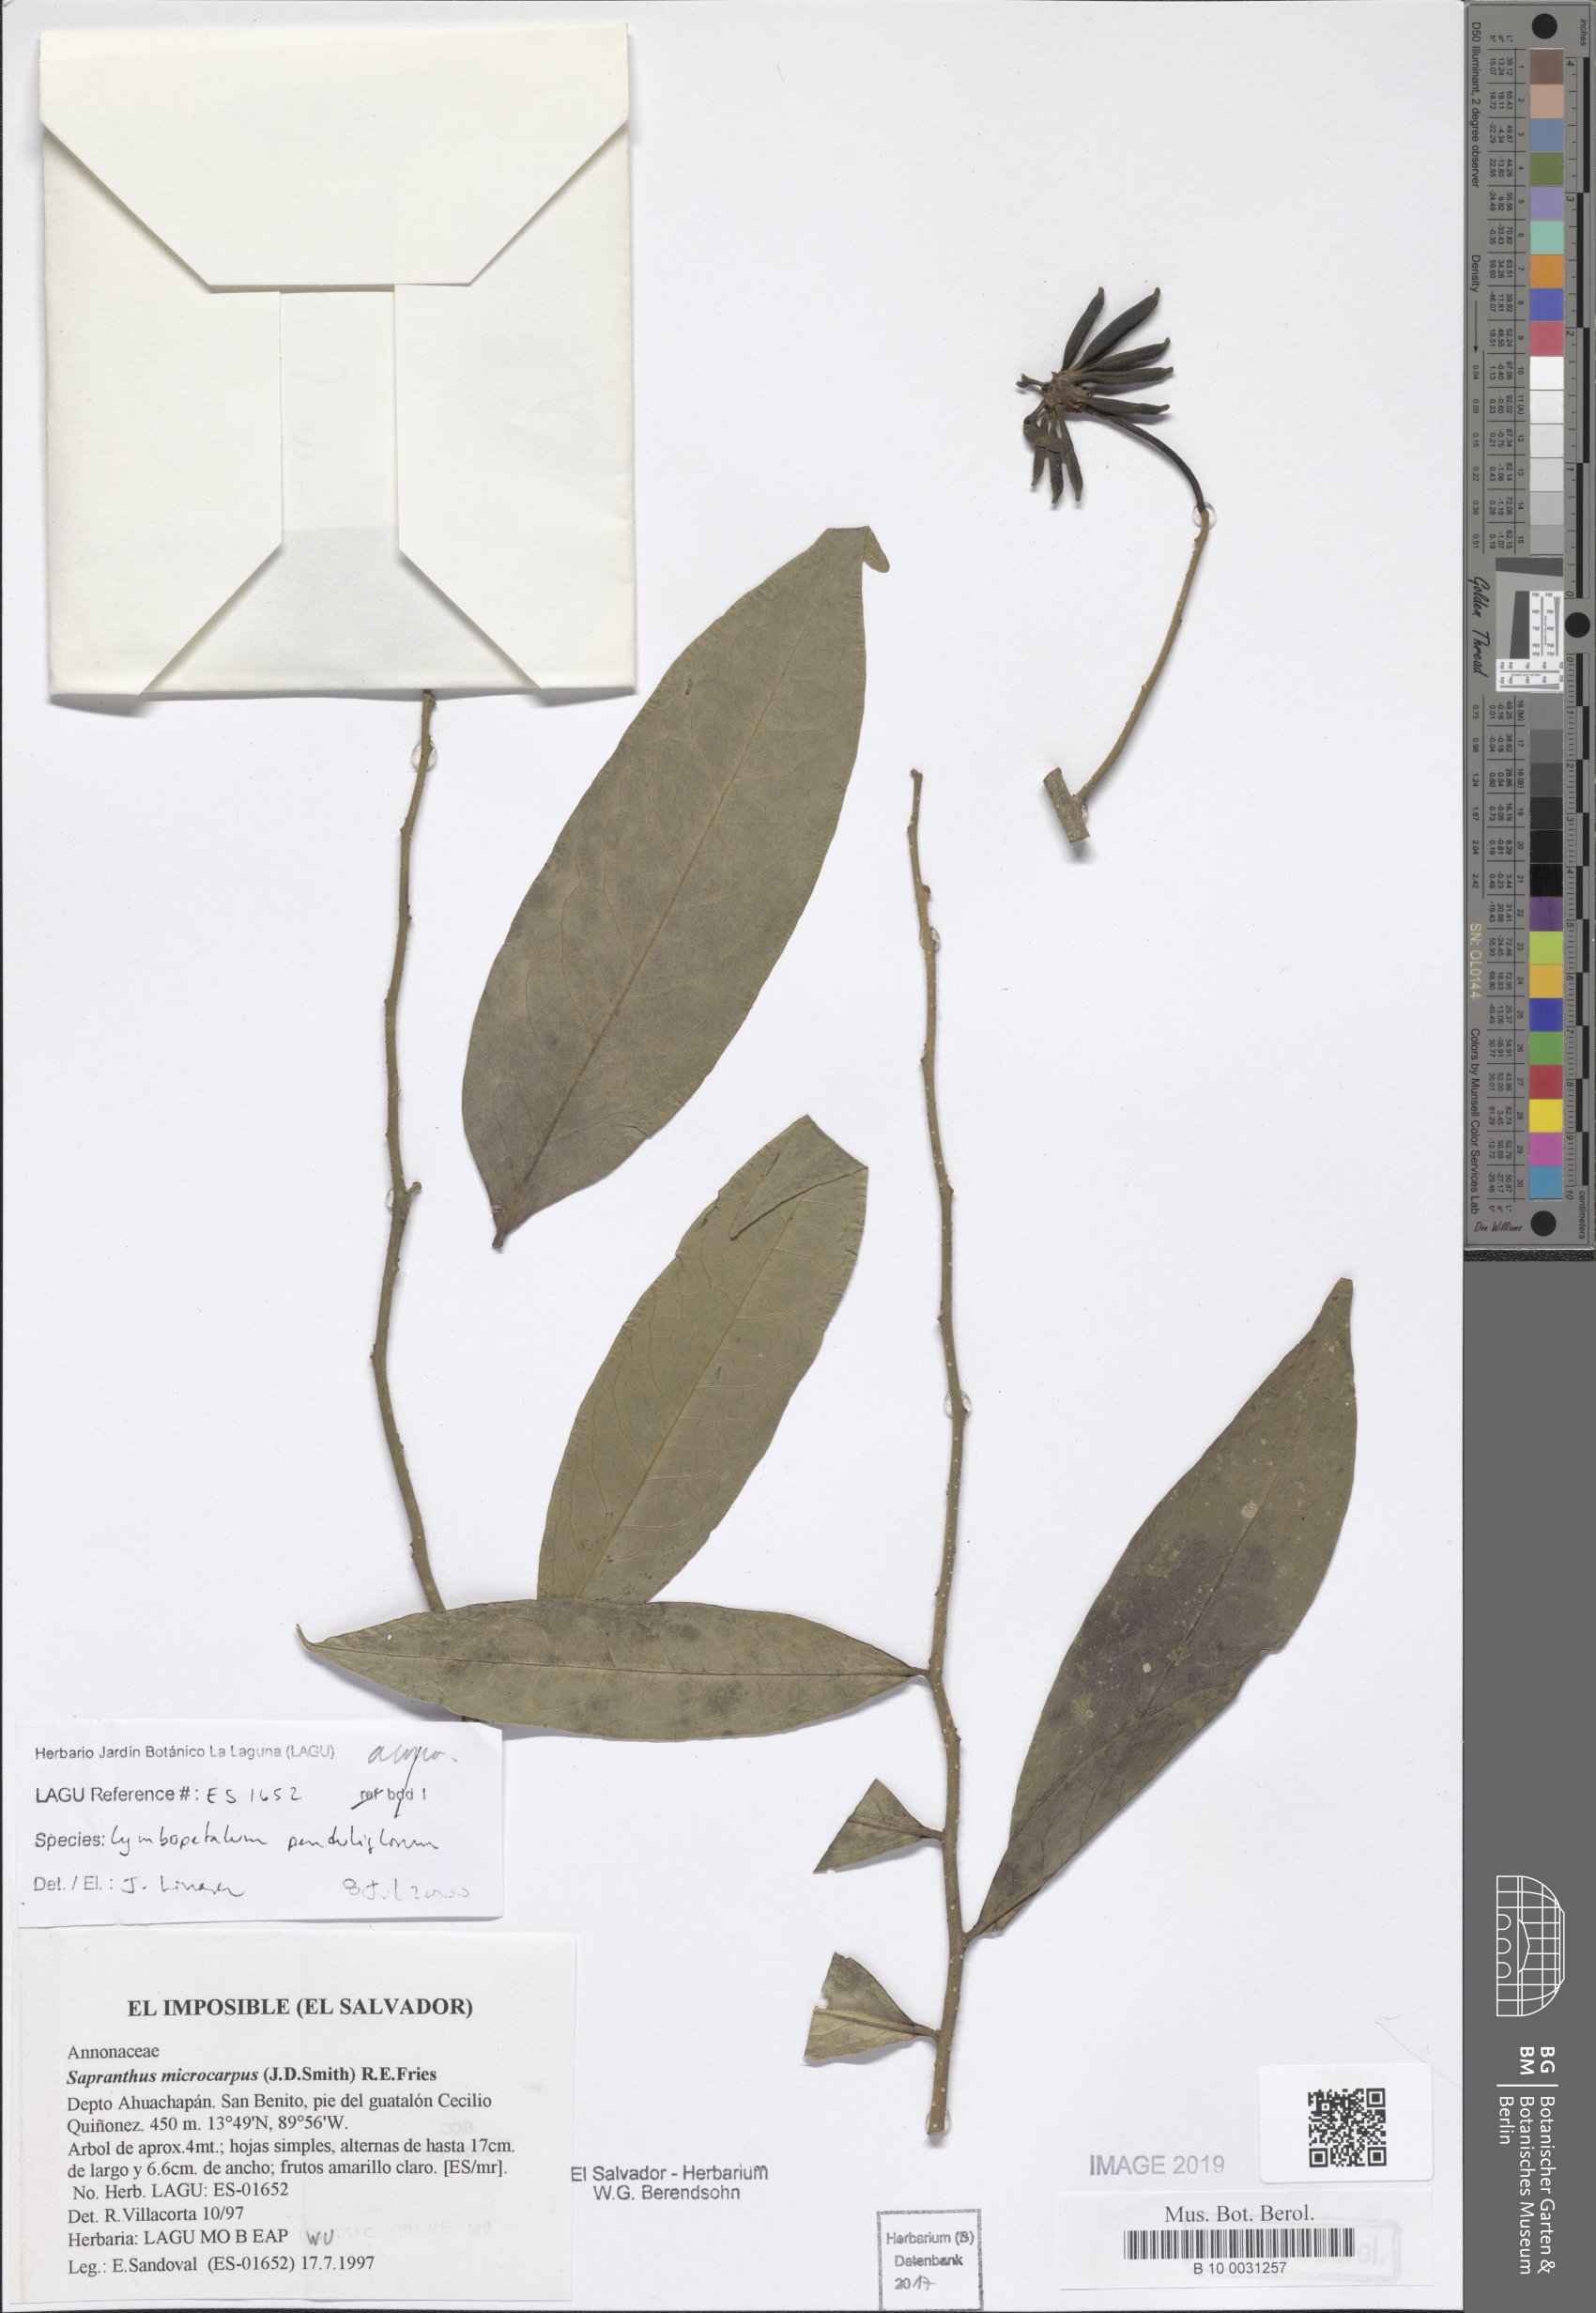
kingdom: Plantae
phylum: Tracheophyta
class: Magnoliopsida
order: Magnoliales
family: Annonaceae
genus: Cymbopetalum
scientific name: Cymbopetalum penduliflorum
